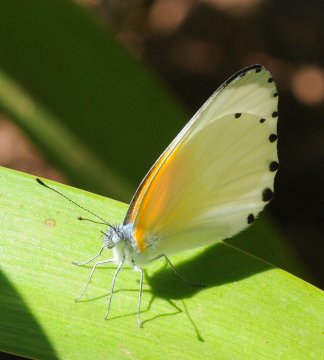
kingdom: Animalia
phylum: Arthropoda
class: Insecta
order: Lepidoptera
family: Pieridae
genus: Mylothris
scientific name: Mylothris rueppellii
